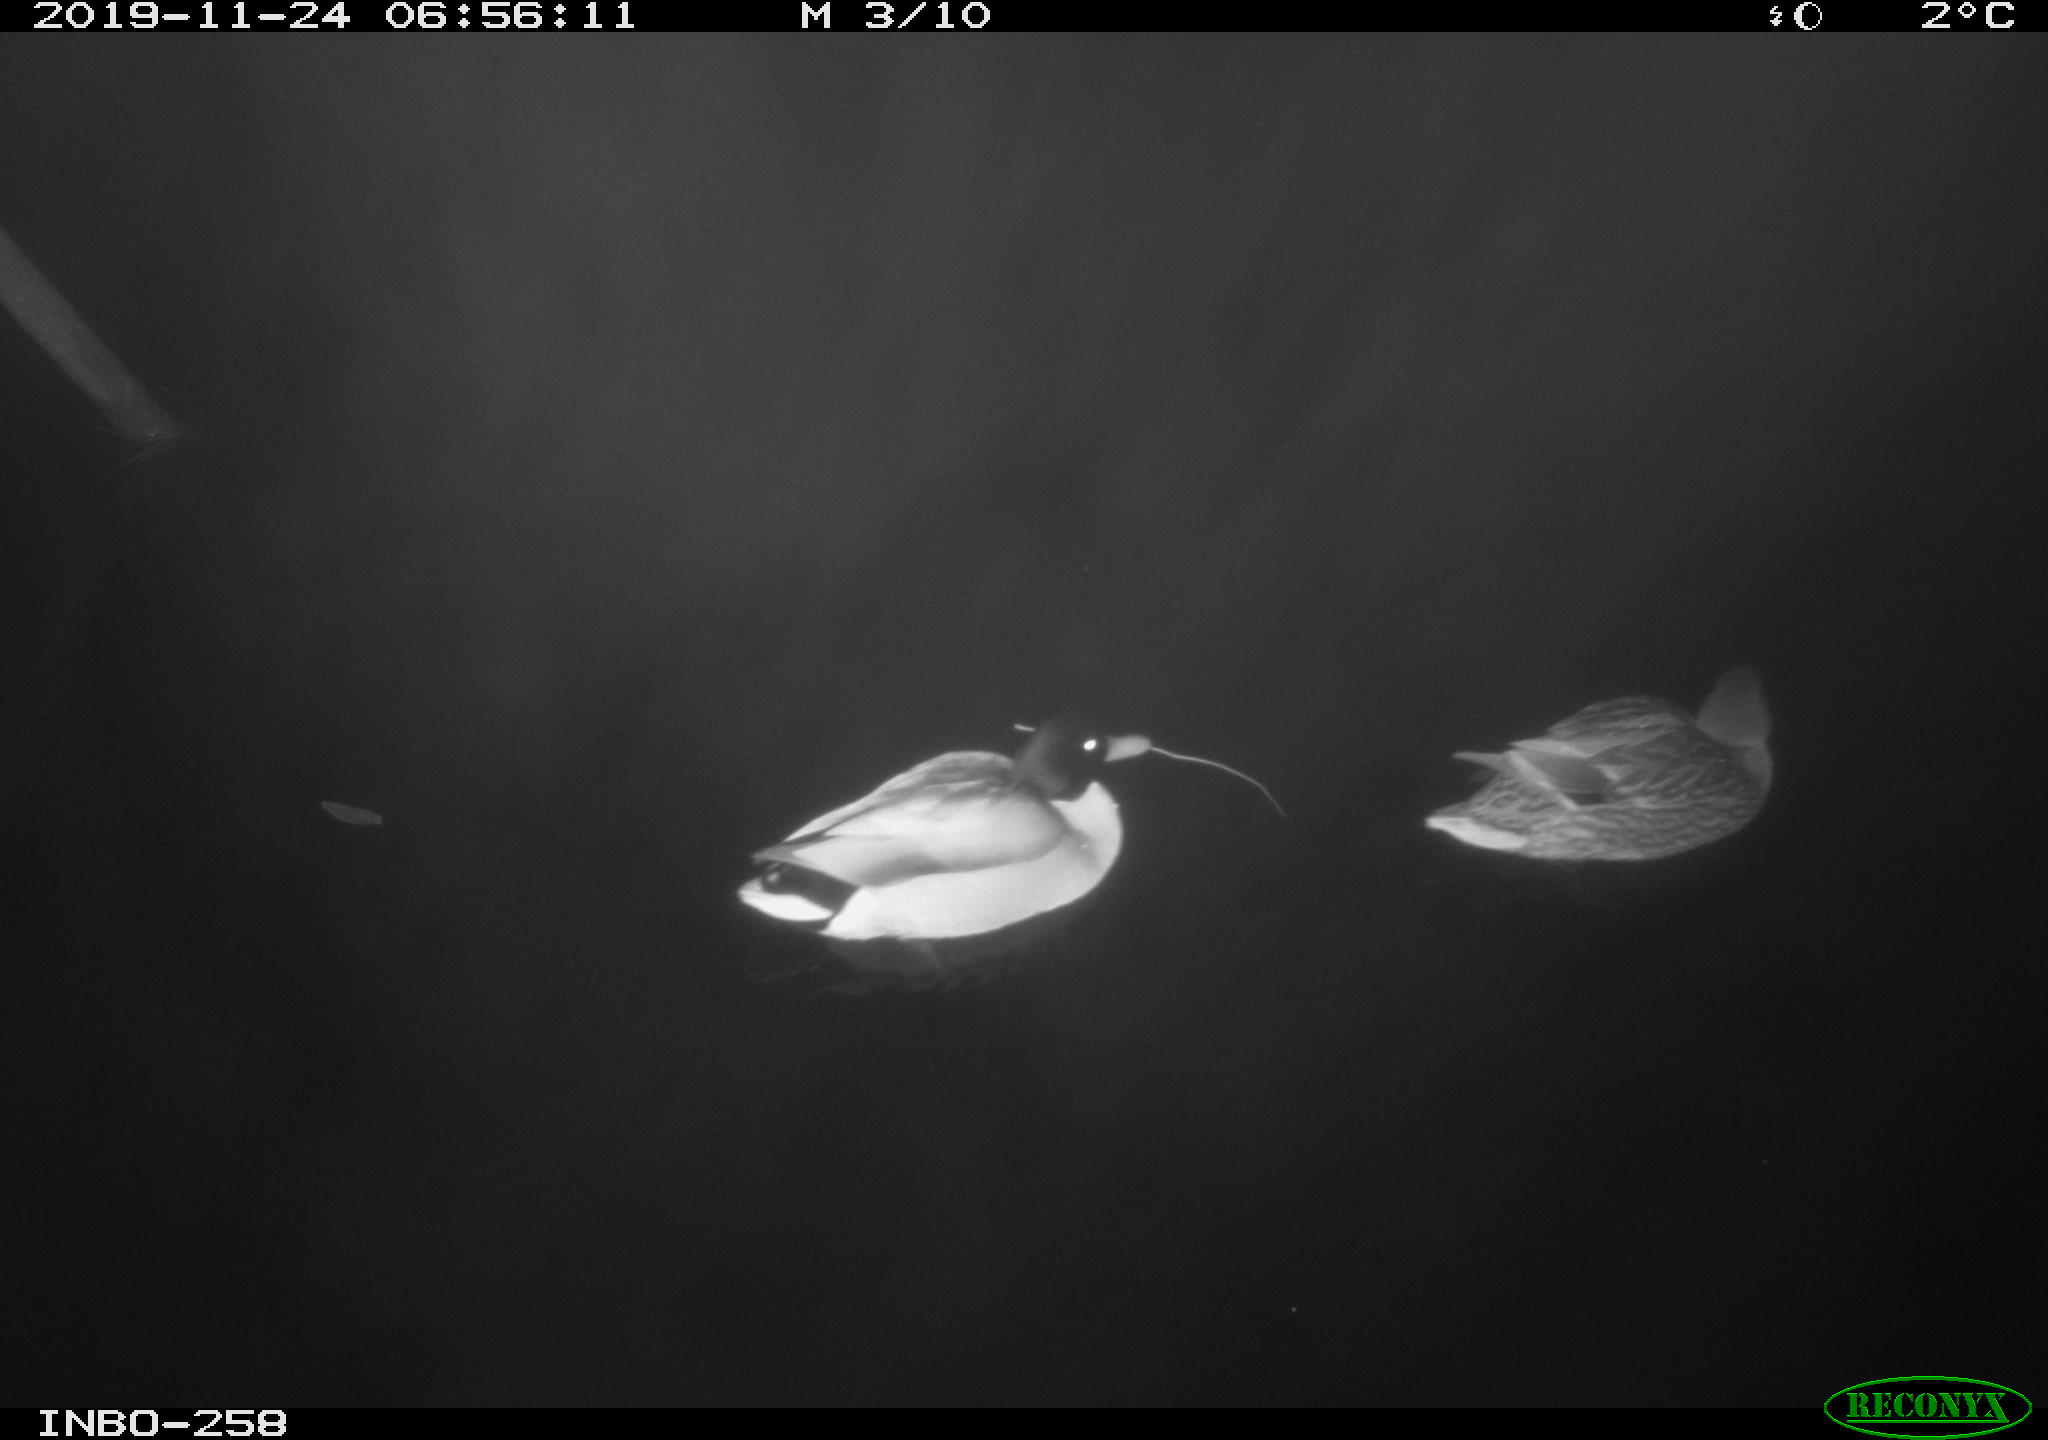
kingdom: Animalia
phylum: Chordata
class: Aves
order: Anseriformes
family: Anatidae
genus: Anas
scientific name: Anas platyrhynchos
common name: Mallard
